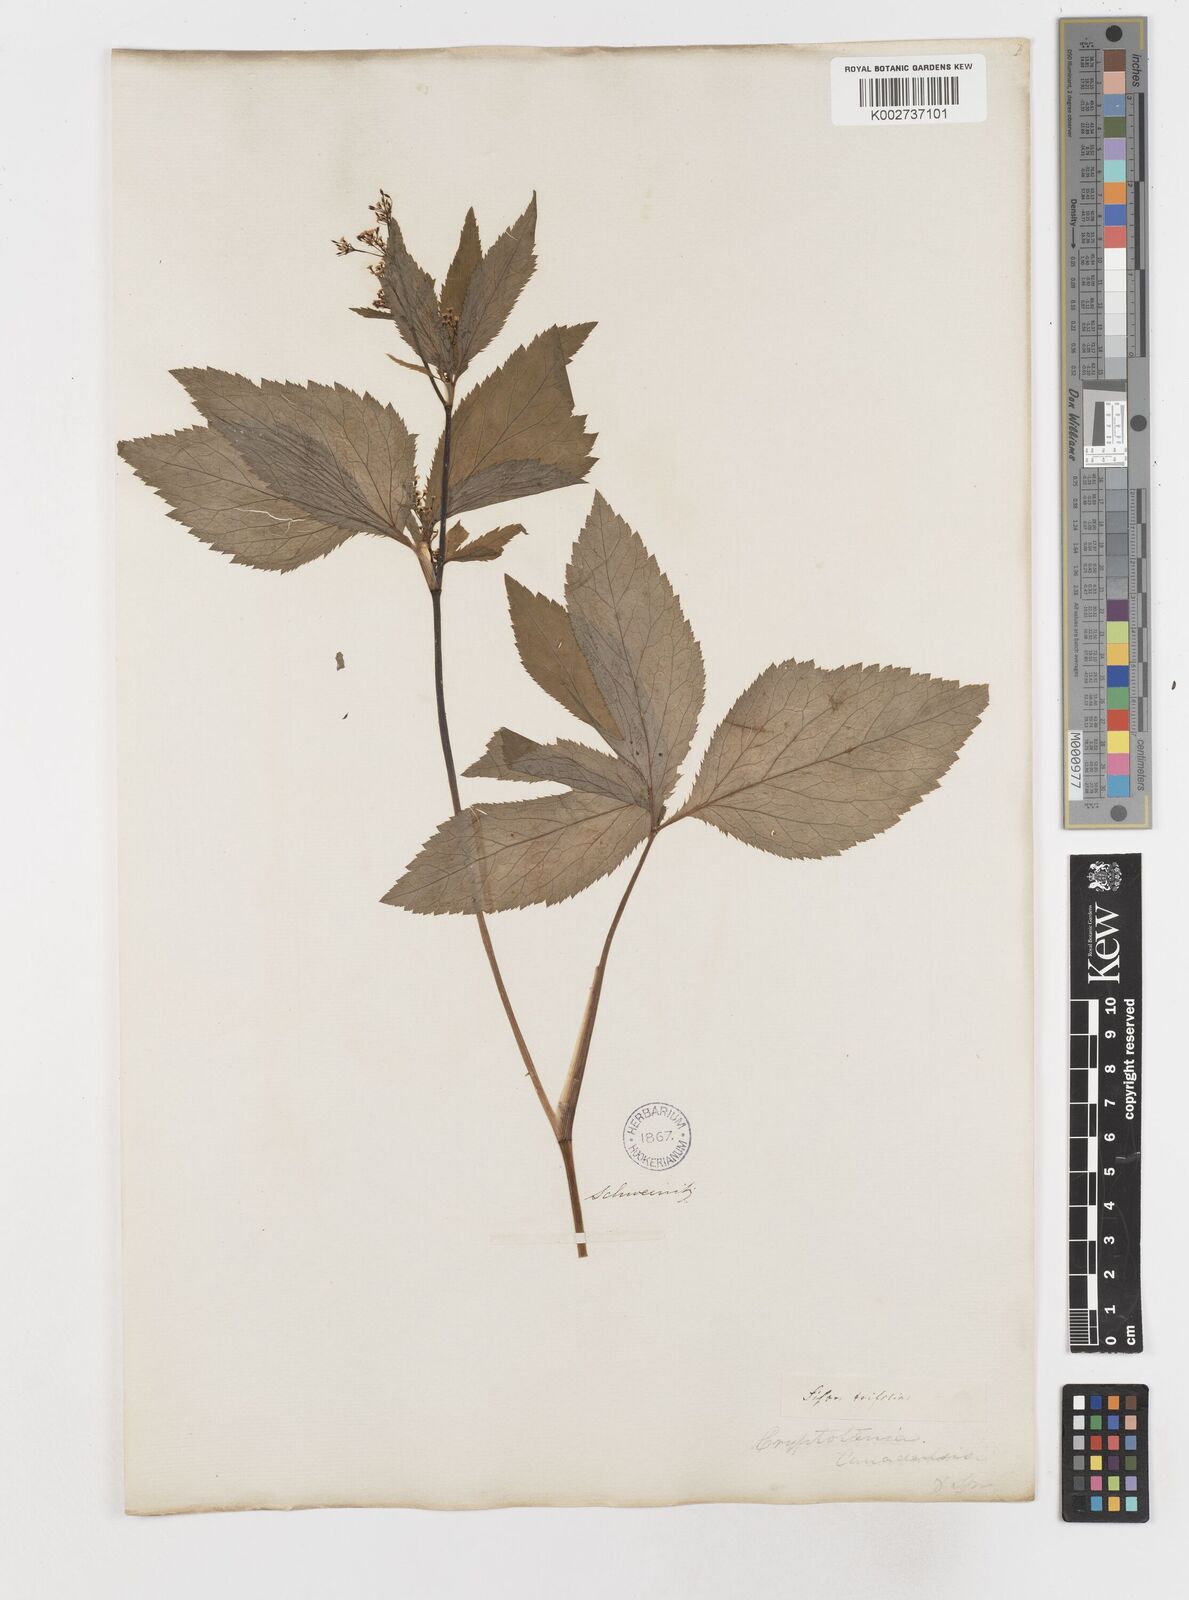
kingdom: Plantae
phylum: Tracheophyta
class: Magnoliopsida
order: Apiales
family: Apiaceae
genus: Cryptotaenia
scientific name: Cryptotaenia canadensis
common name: Honewort
